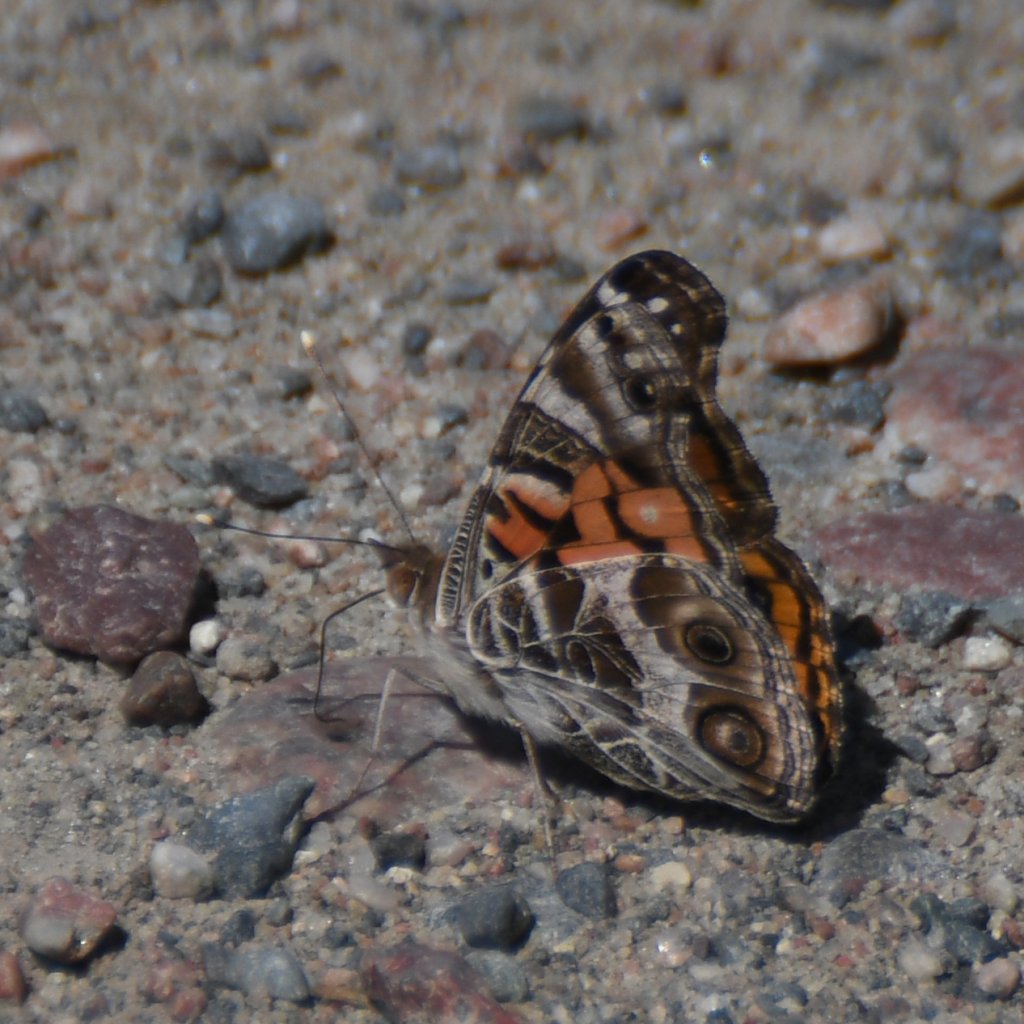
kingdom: Animalia
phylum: Arthropoda
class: Insecta
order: Lepidoptera
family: Nymphalidae
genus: Vanessa
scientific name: Vanessa virginiensis
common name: American Lady
